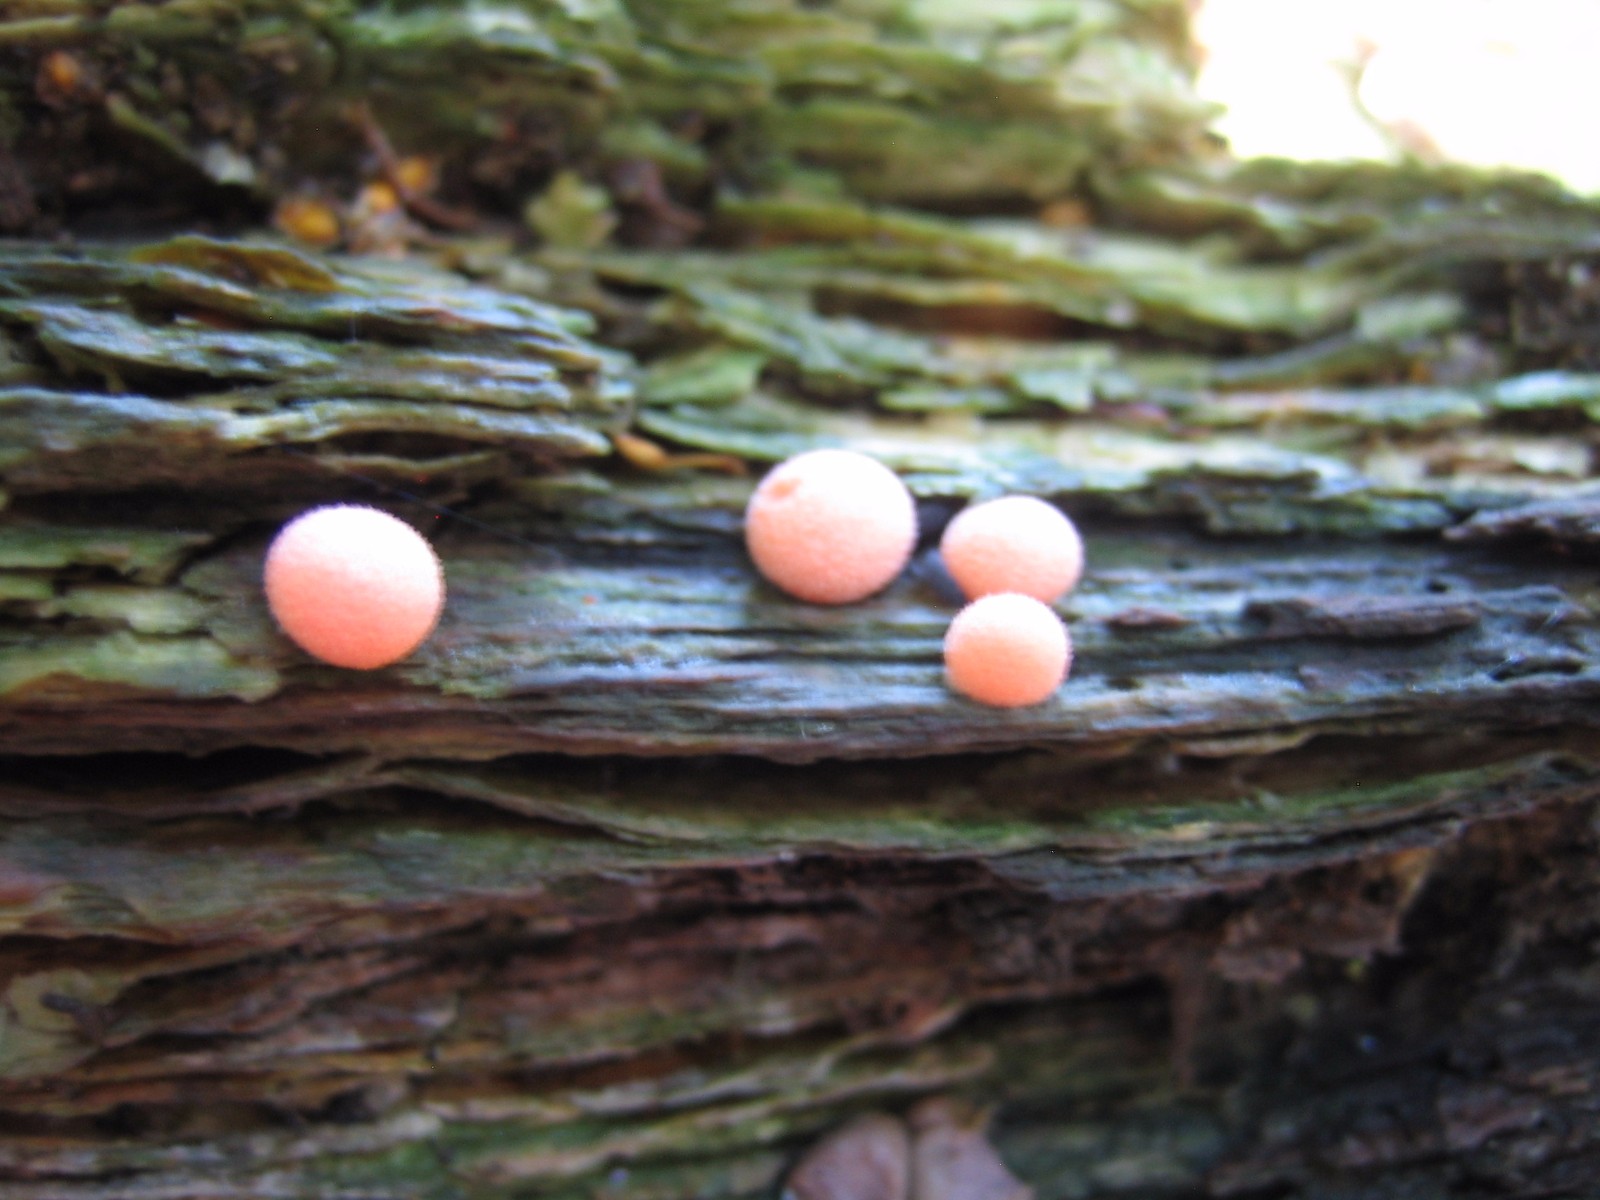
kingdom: Protozoa
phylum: Mycetozoa
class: Myxomycetes
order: Cribrariales
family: Tubiferaceae
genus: Lycogala
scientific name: Lycogala epidendrum
